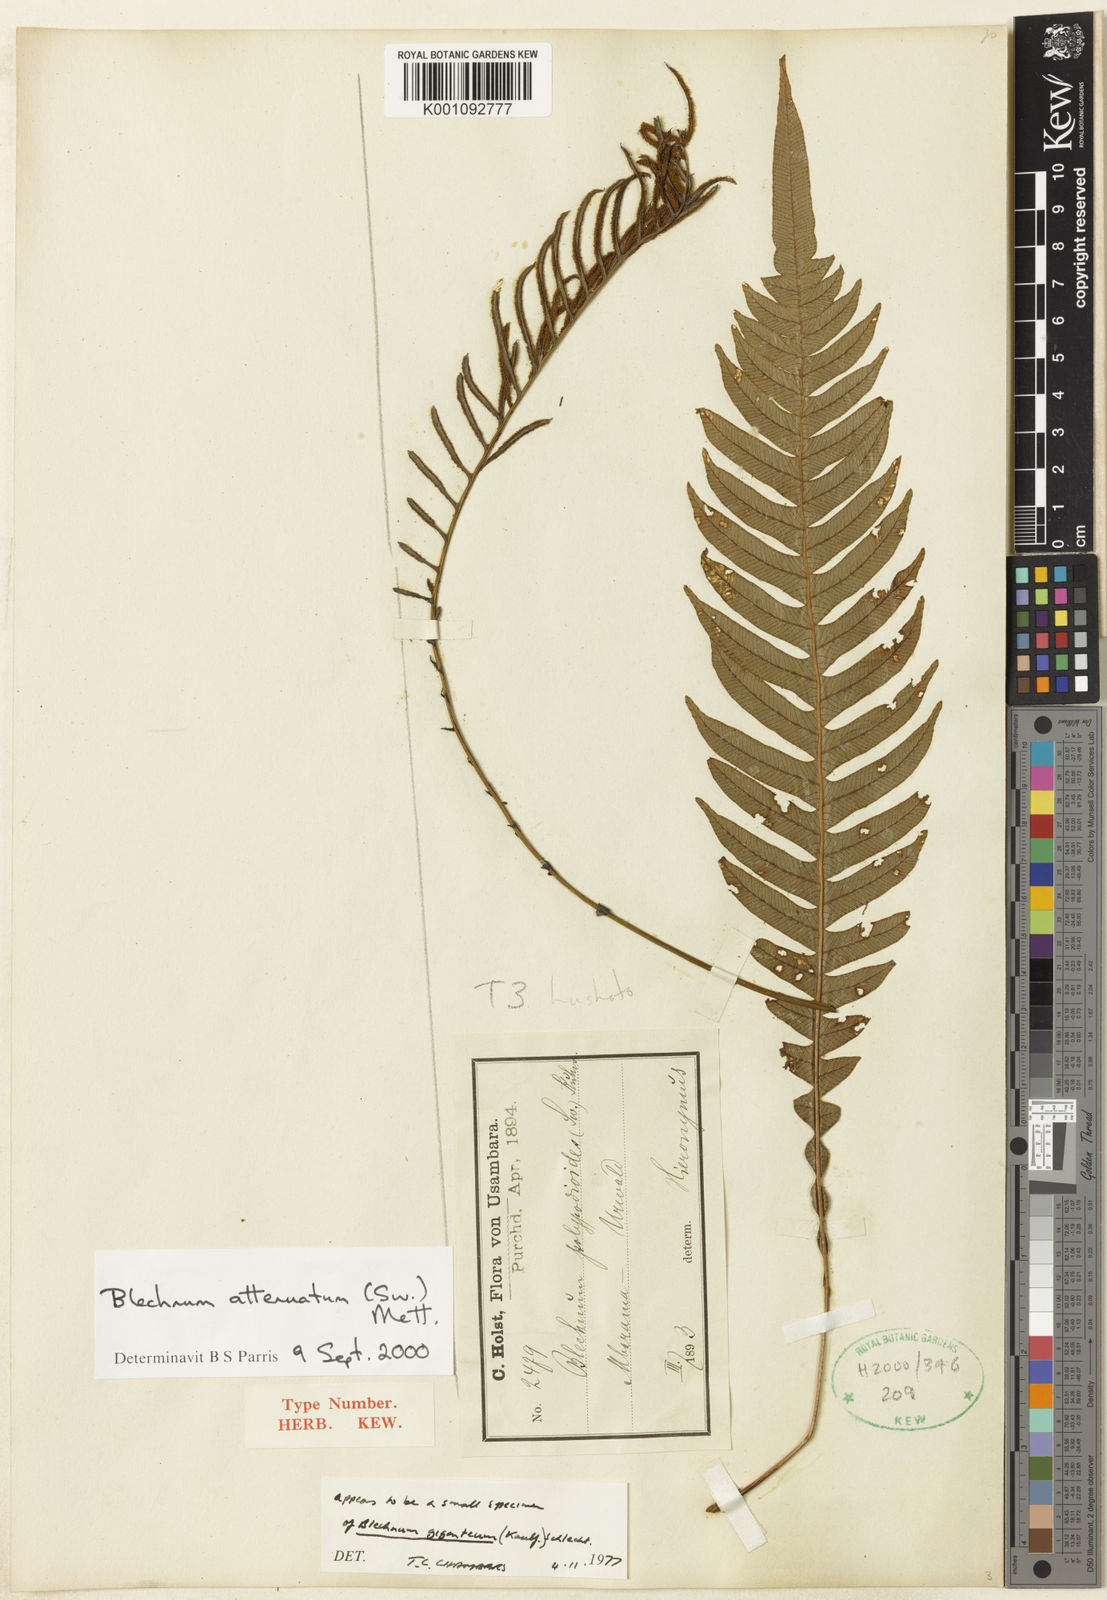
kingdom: Plantae
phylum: Tracheophyta
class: Polypodiopsida
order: Polypodiales
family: Blechnaceae
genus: Lomaridium
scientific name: Lomaridium attenuatum
